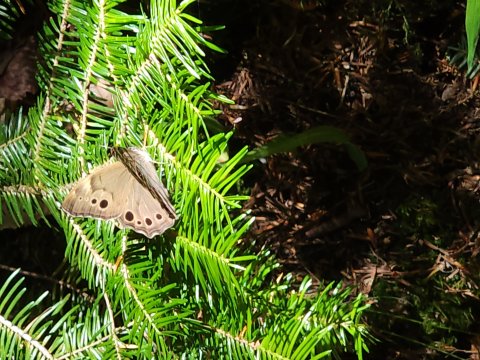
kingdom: Animalia
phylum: Arthropoda
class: Insecta
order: Lepidoptera
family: Nymphalidae
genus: Lethe
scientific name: Lethe anthedon
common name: Northern Pearly-Eye
